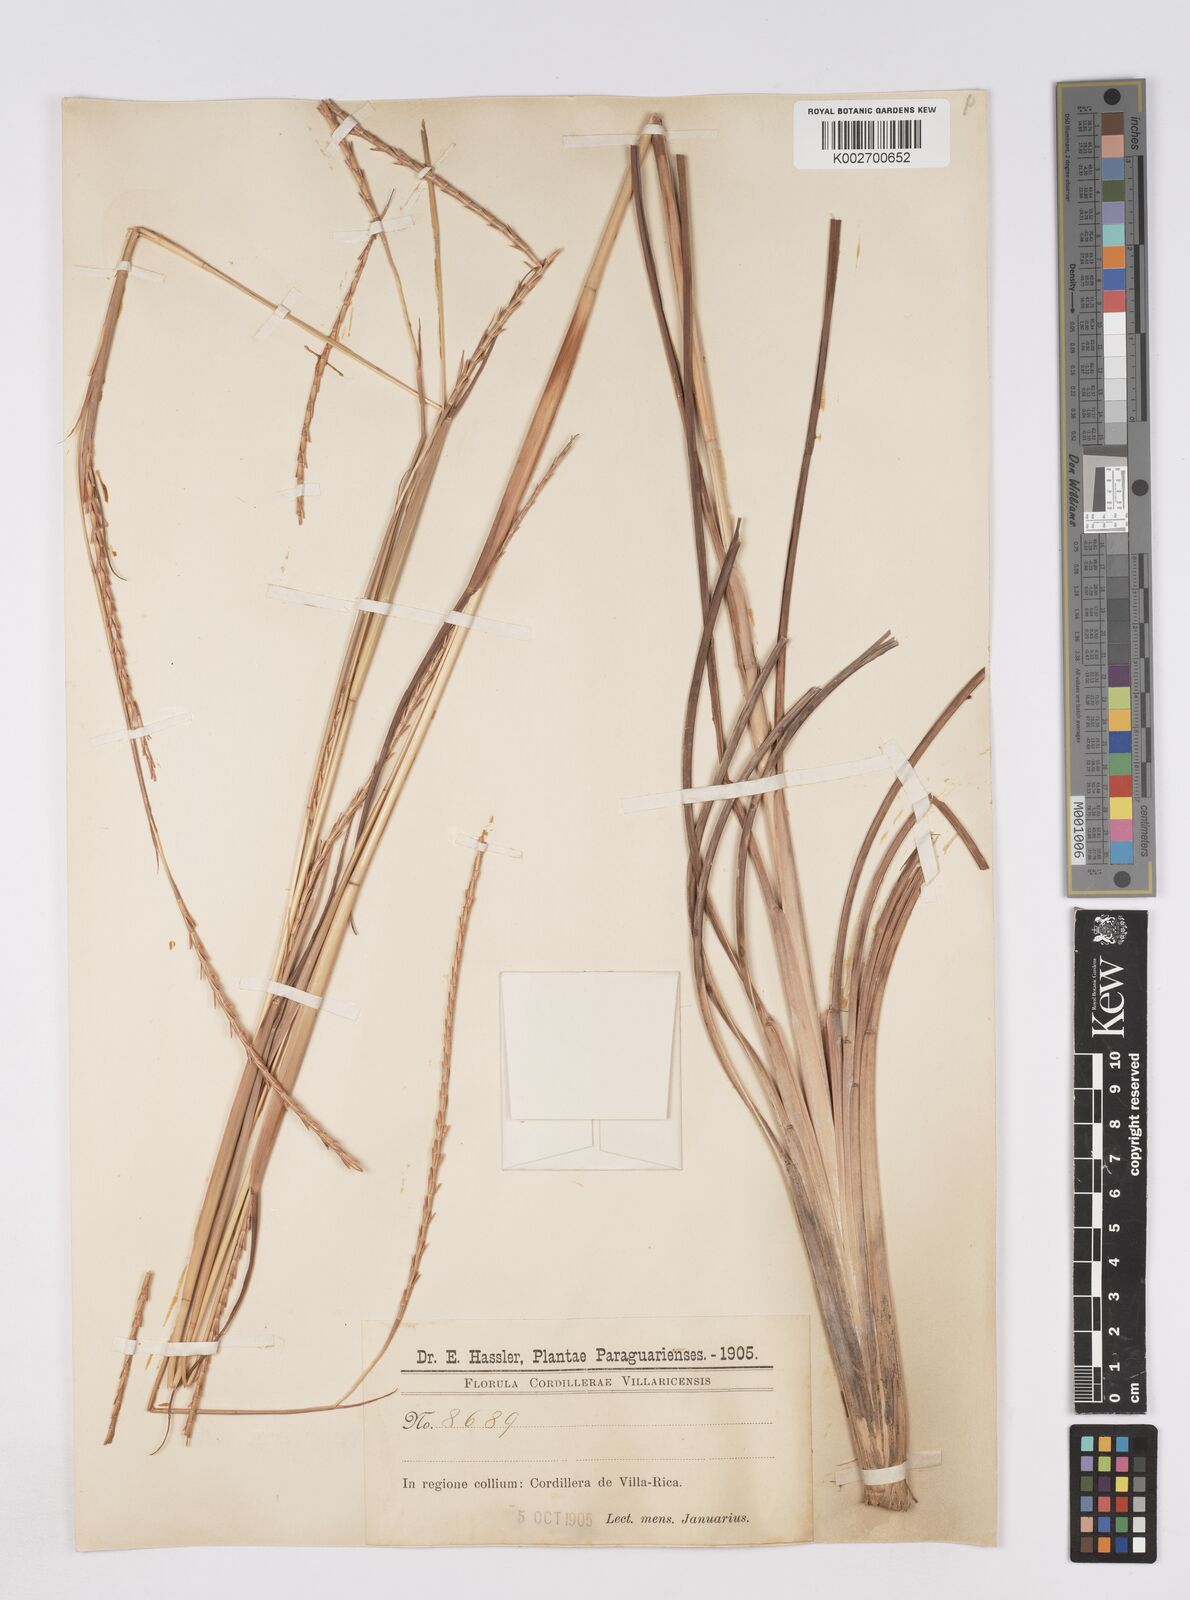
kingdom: Plantae
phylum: Tracheophyta
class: Liliopsida
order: Poales
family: Poaceae
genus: Rottboellia
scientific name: Rottboellia balansae
